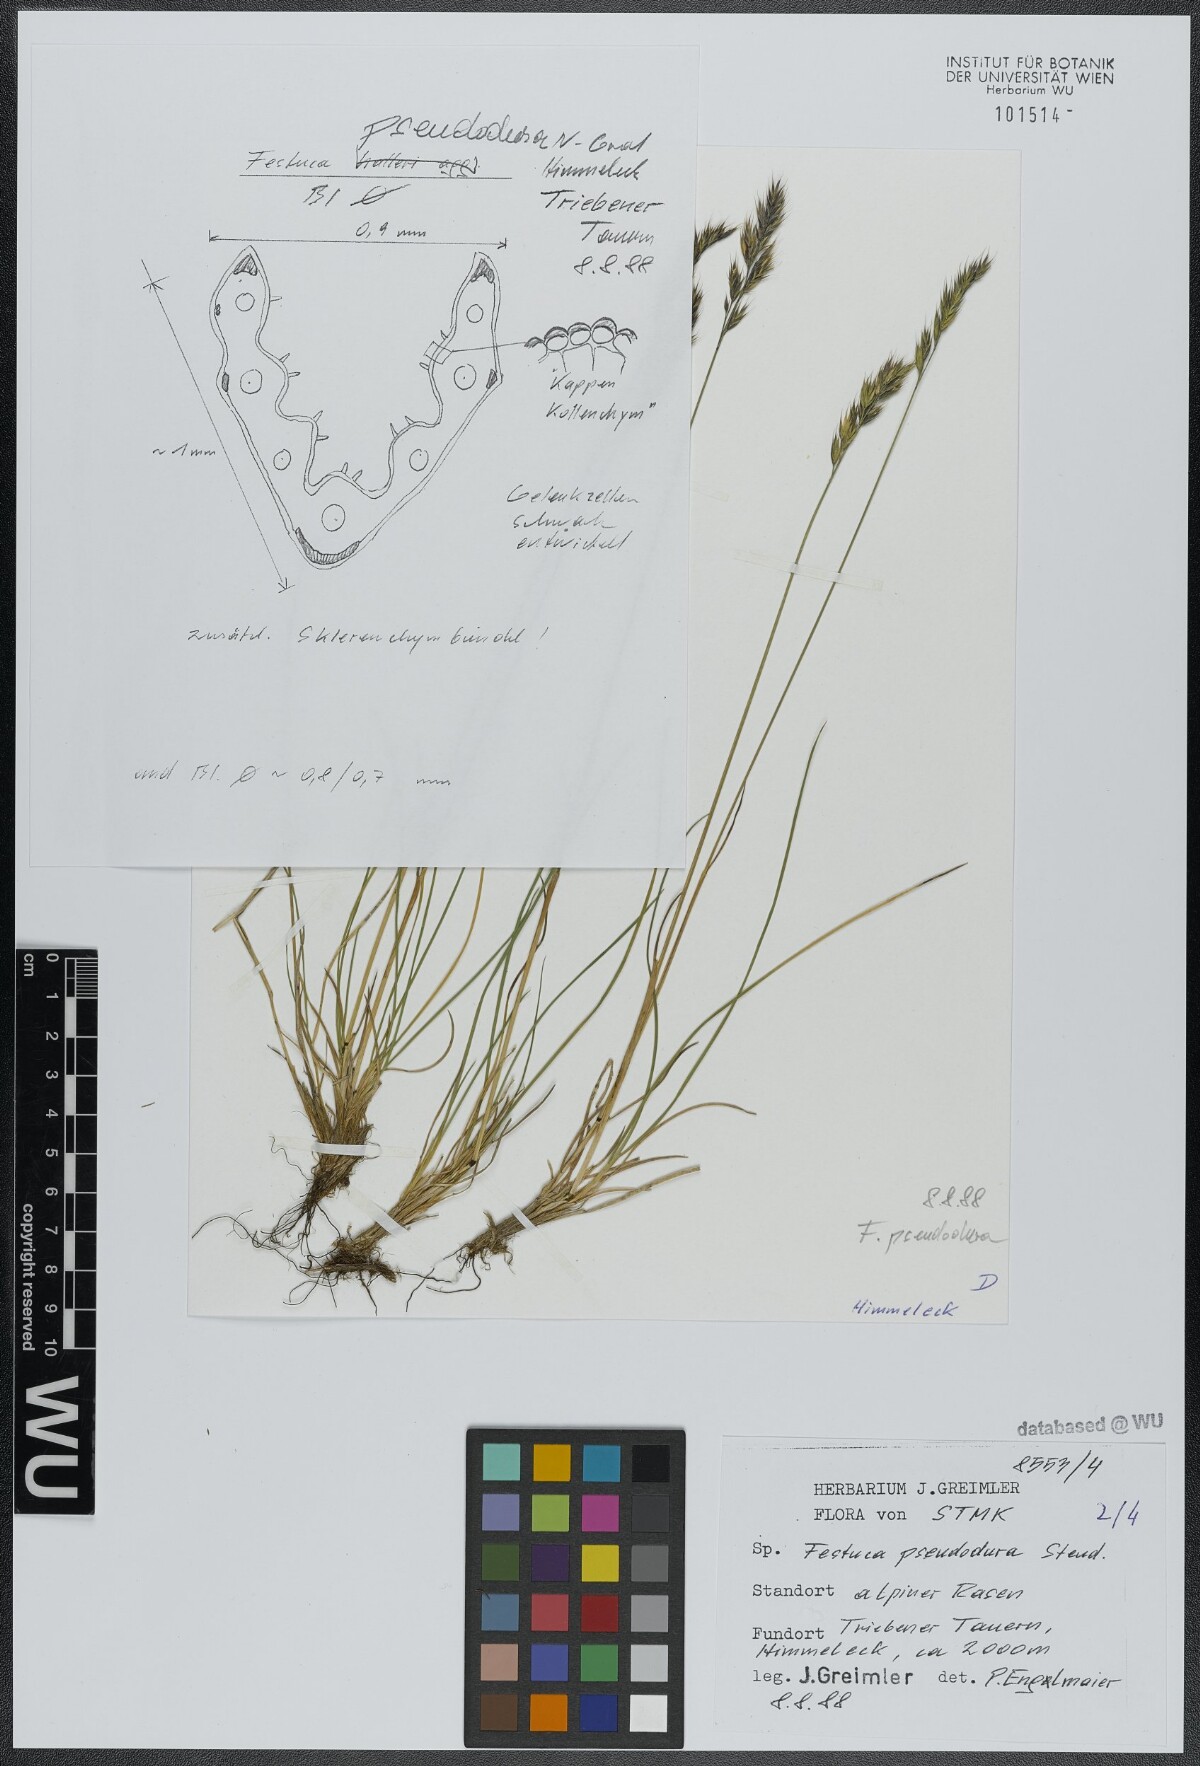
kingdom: Plantae
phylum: Tracheophyta
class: Liliopsida
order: Poales
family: Poaceae
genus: Festuca
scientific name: Festuca pseudodura
